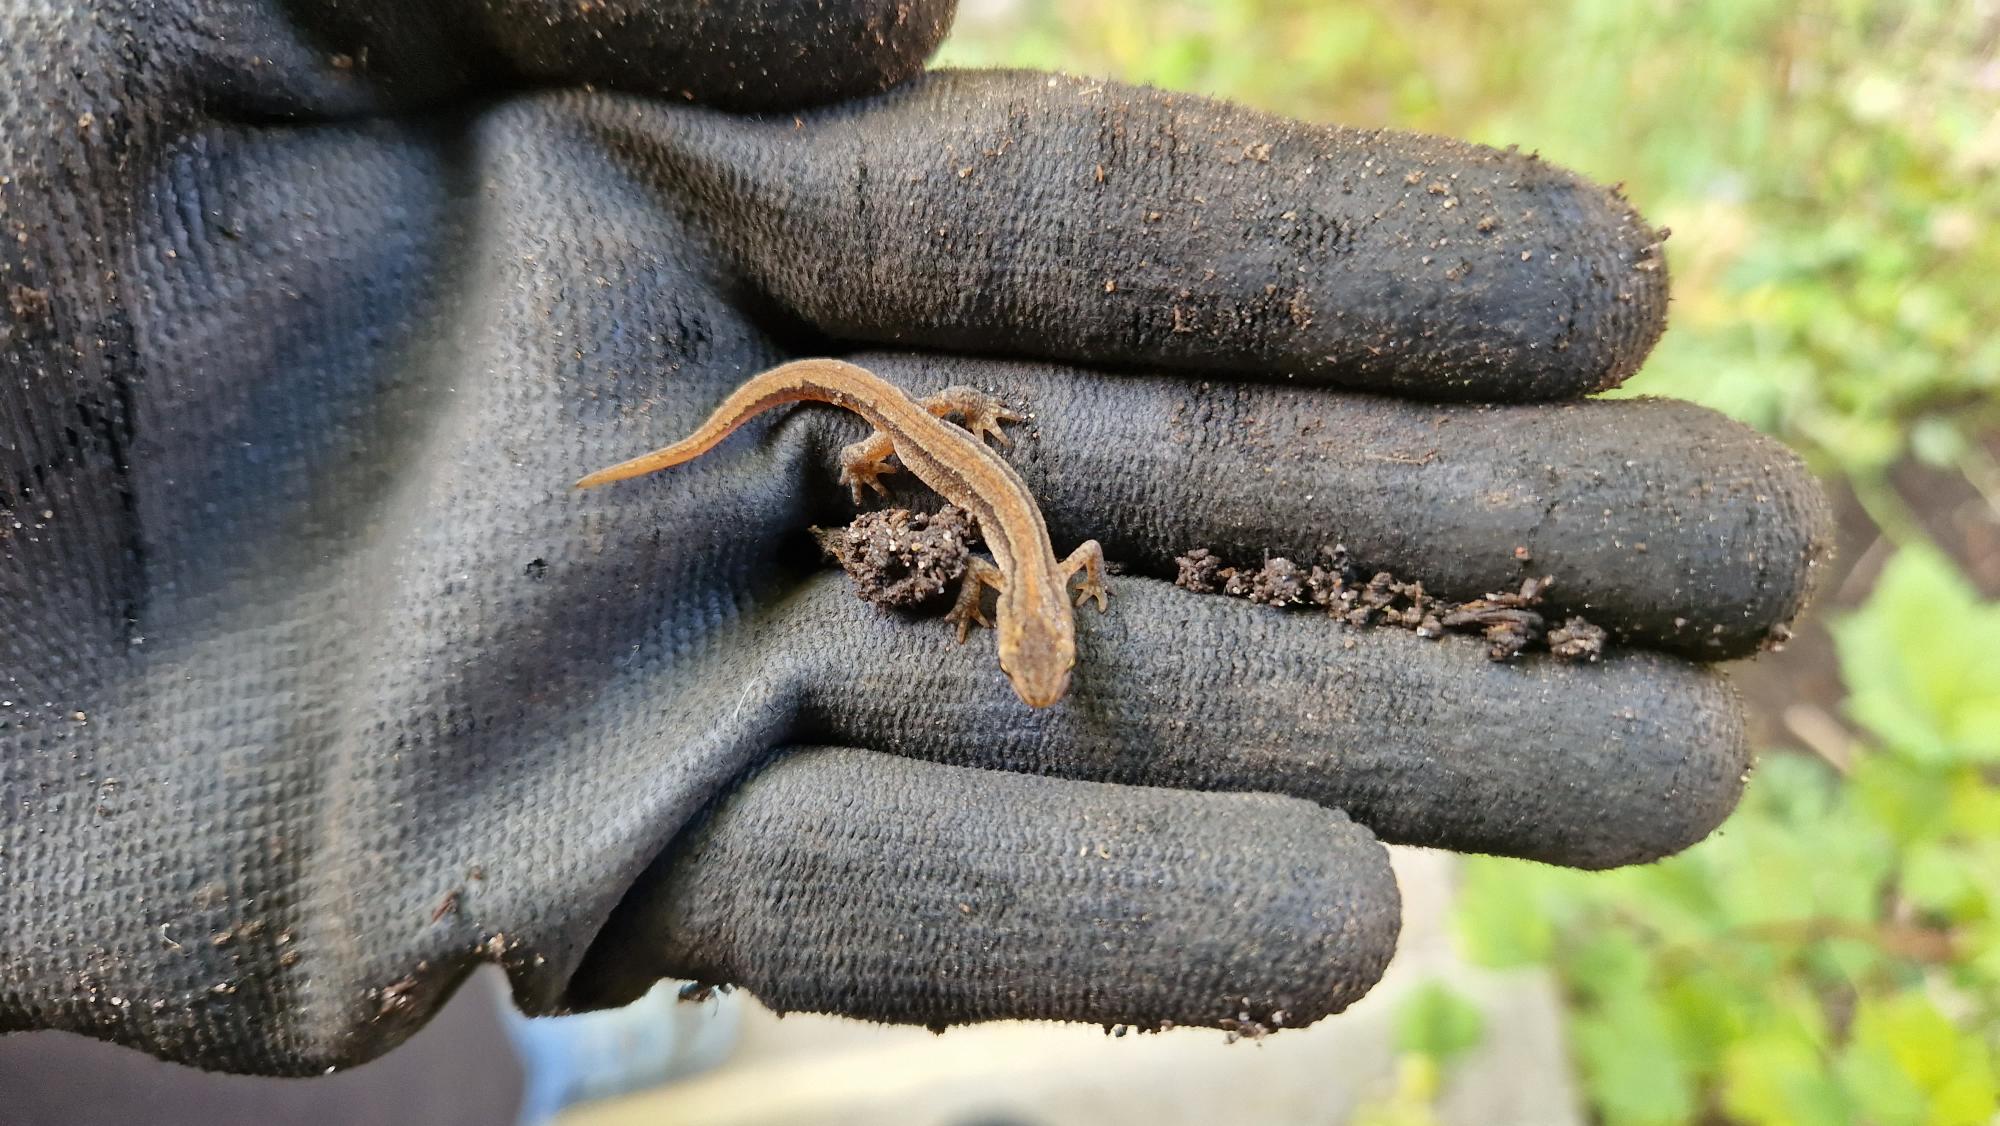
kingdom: Animalia
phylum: Chordata
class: Amphibia
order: Caudata
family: Salamandridae
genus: Lissotriton
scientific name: Lissotriton vulgaris
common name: Lille vandsalamander
